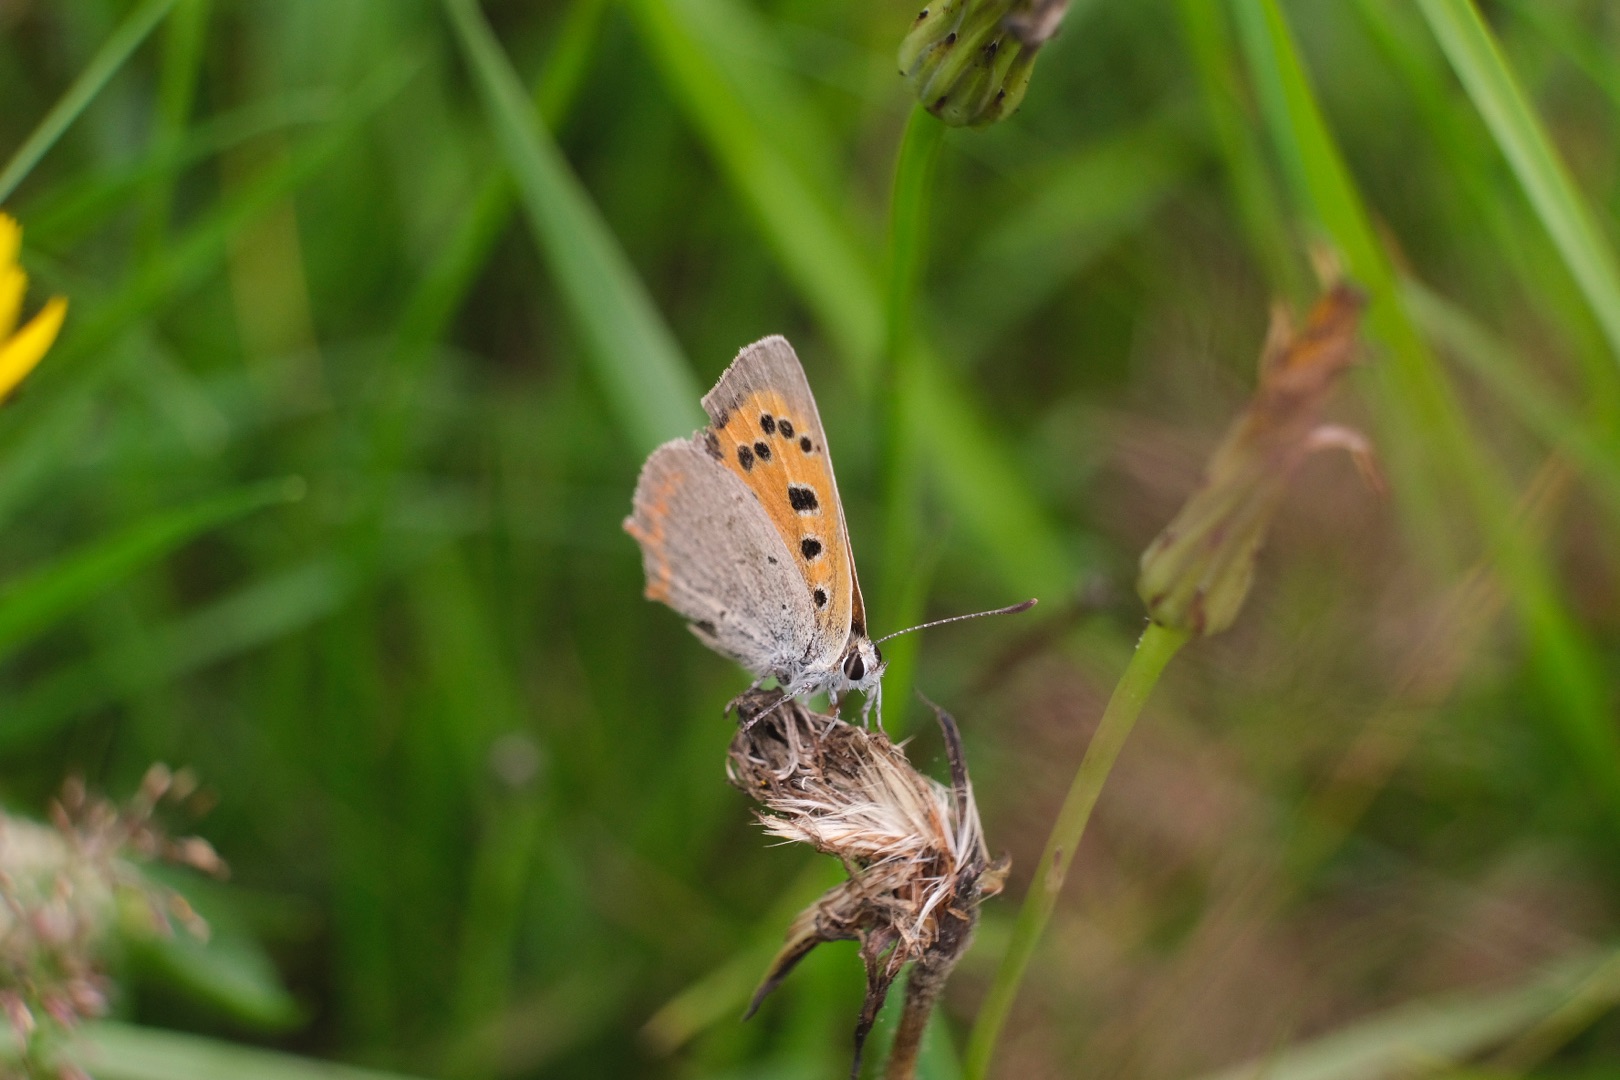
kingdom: Animalia
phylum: Arthropoda
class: Insecta
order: Lepidoptera
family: Lycaenidae
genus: Lycaena
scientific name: Lycaena phlaeas
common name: Lille ildfugl
